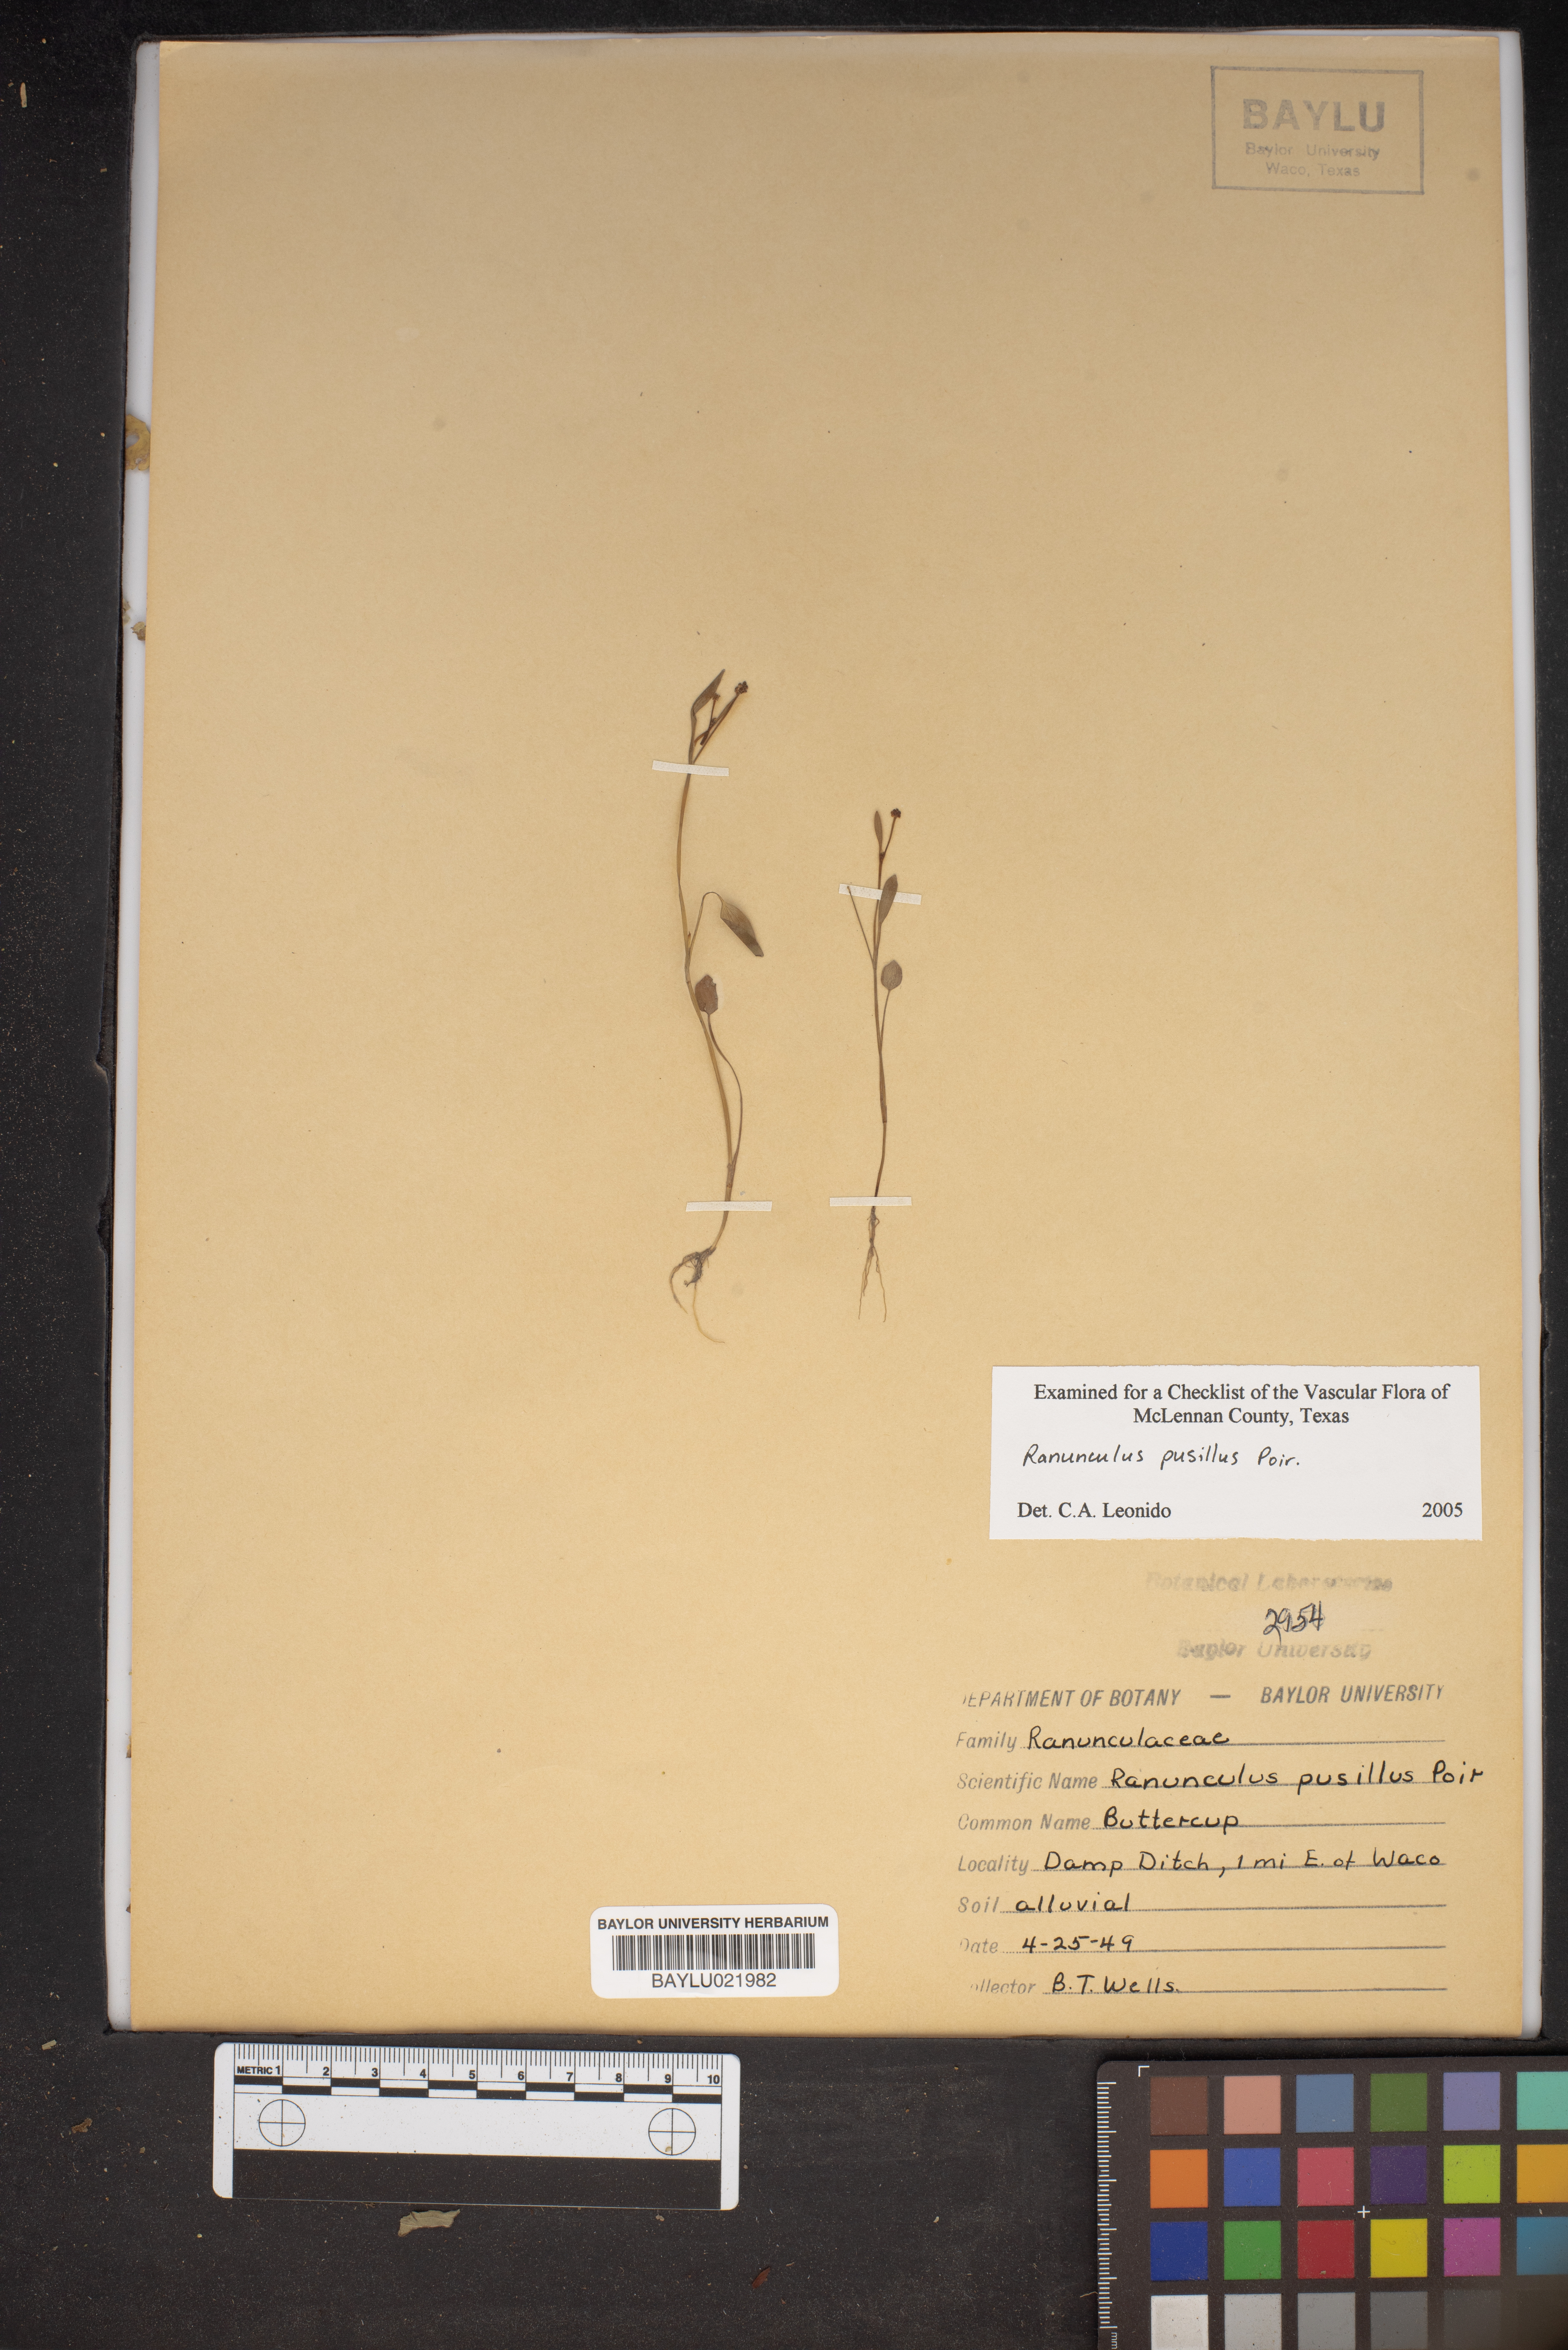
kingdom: Plantae
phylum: Tracheophyta
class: Magnoliopsida
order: Ranunculales
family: Ranunculaceae
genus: Ranunculus
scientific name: Ranunculus pusillus
